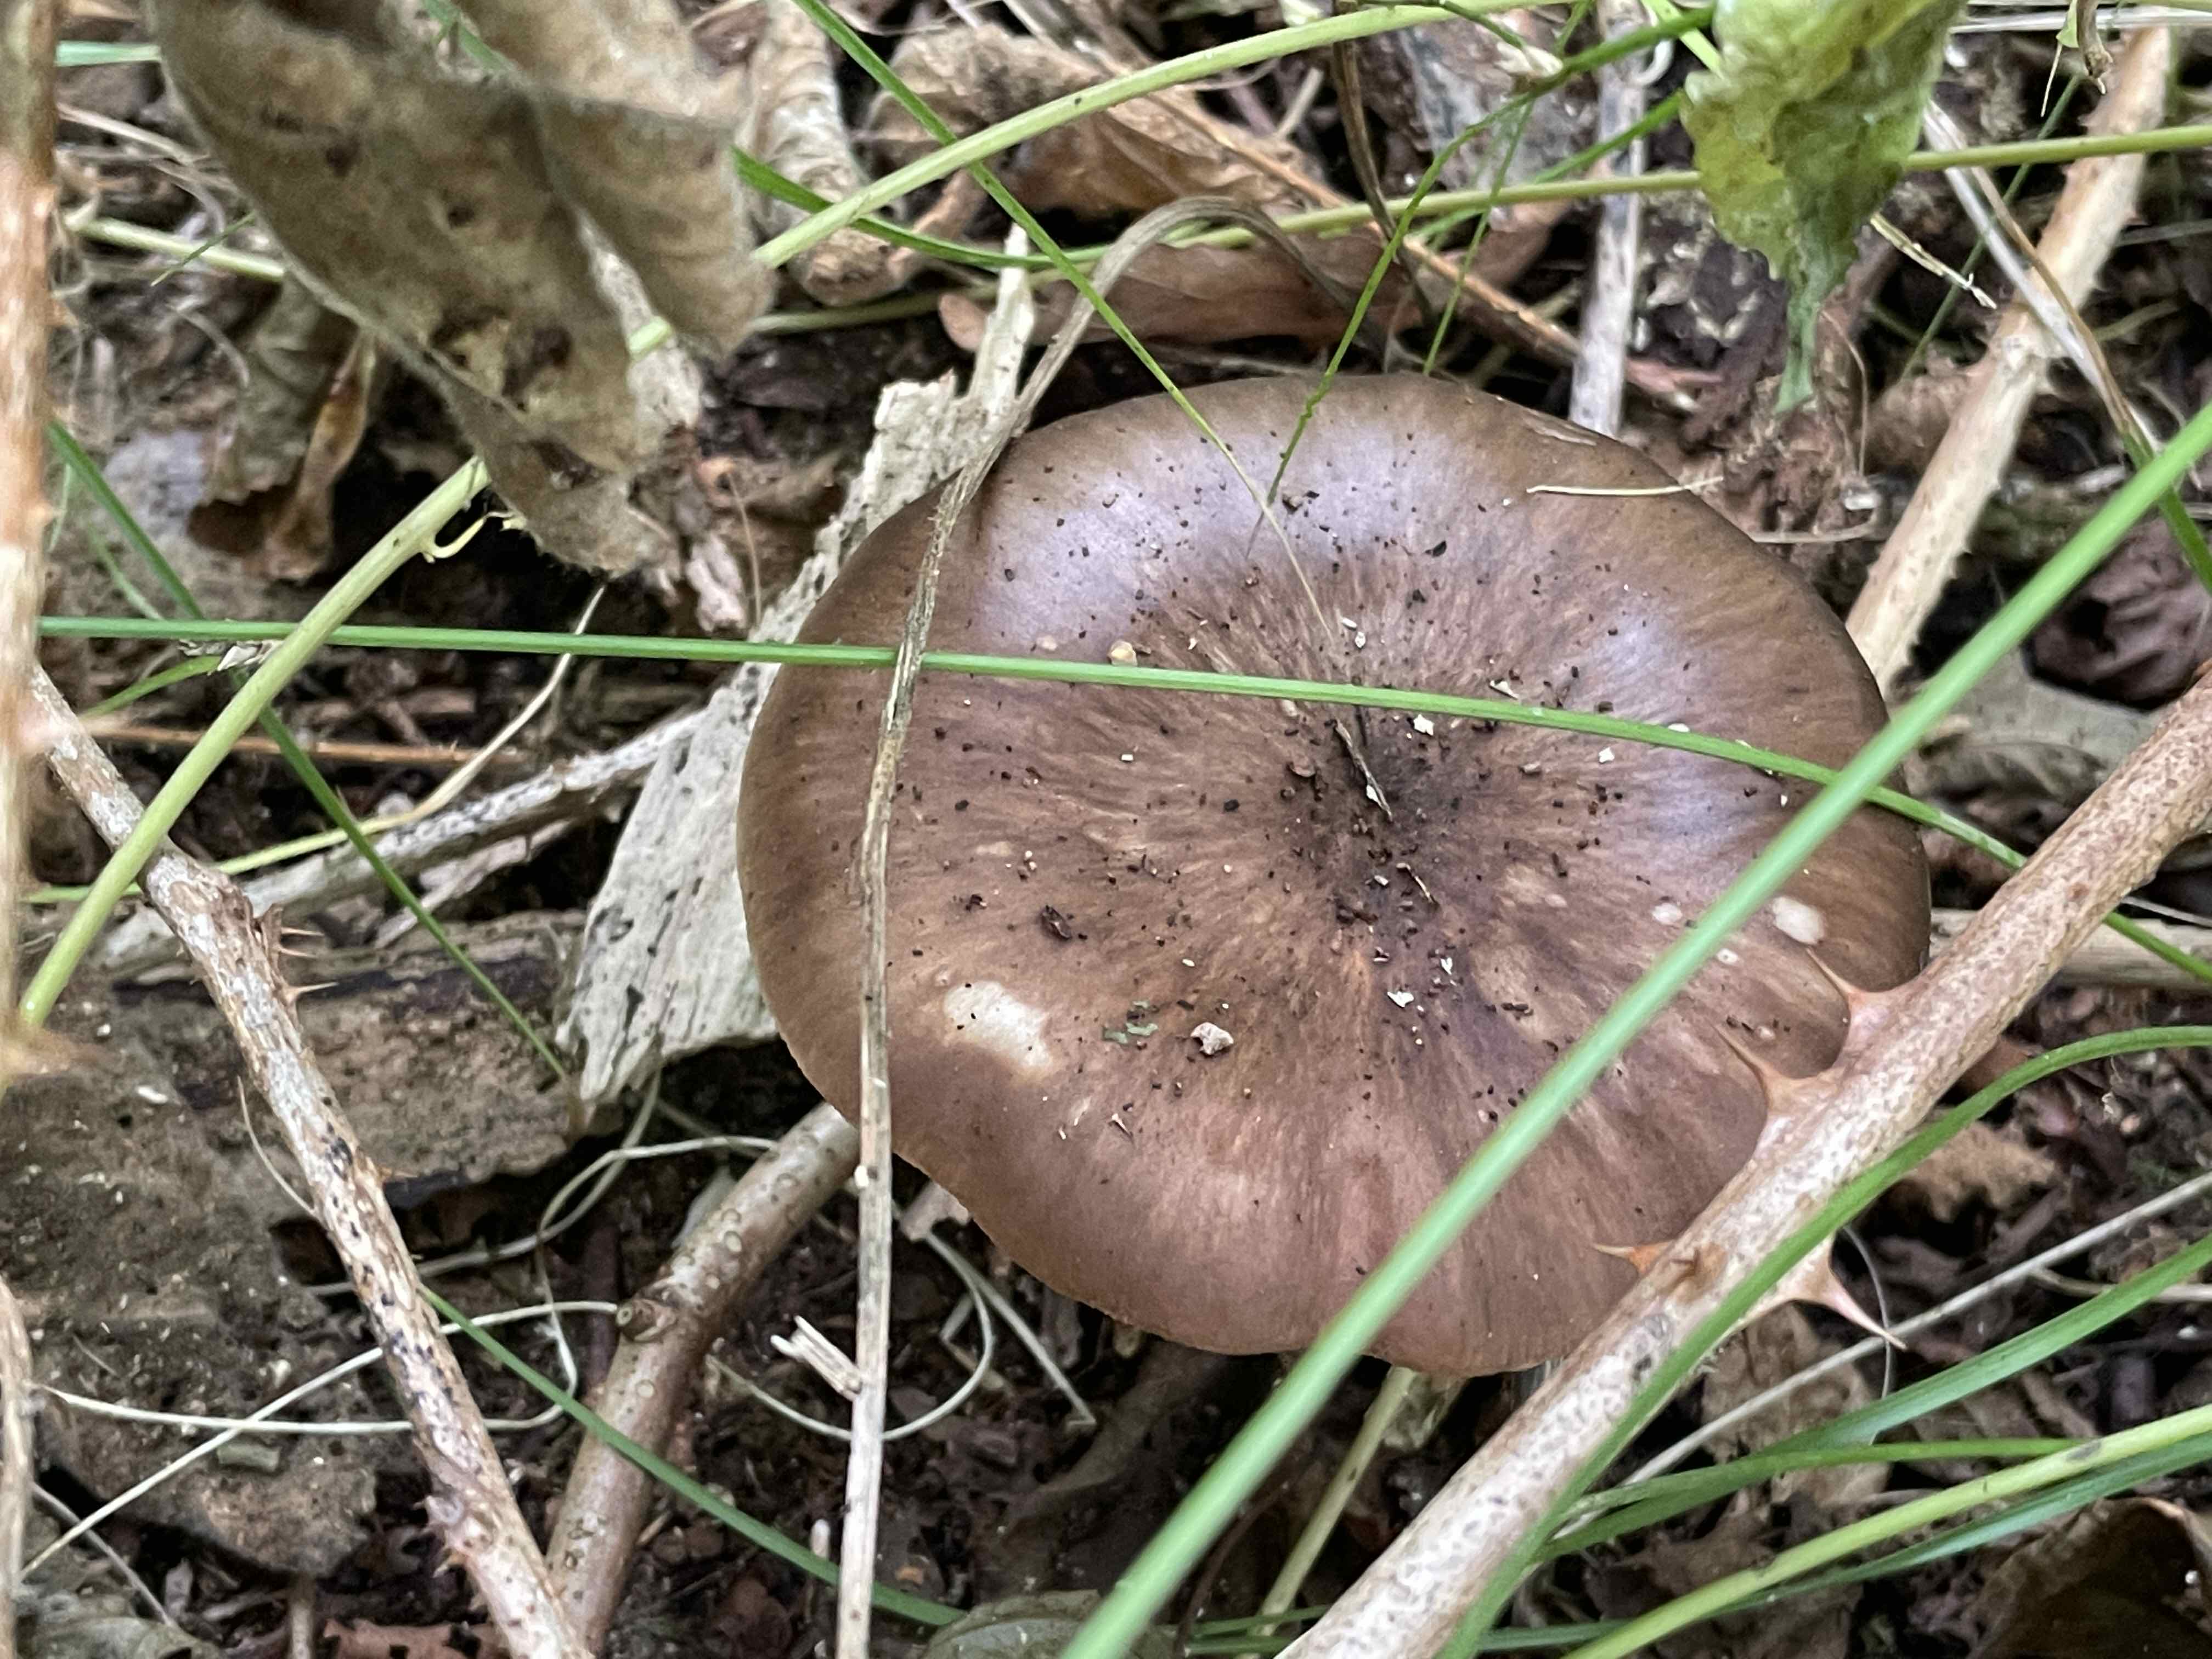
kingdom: Fungi
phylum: Basidiomycota
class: Agaricomycetes
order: Agaricales
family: Pluteaceae
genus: Pluteus
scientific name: Pluteus cervinus
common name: sodfarvet skærmhat
